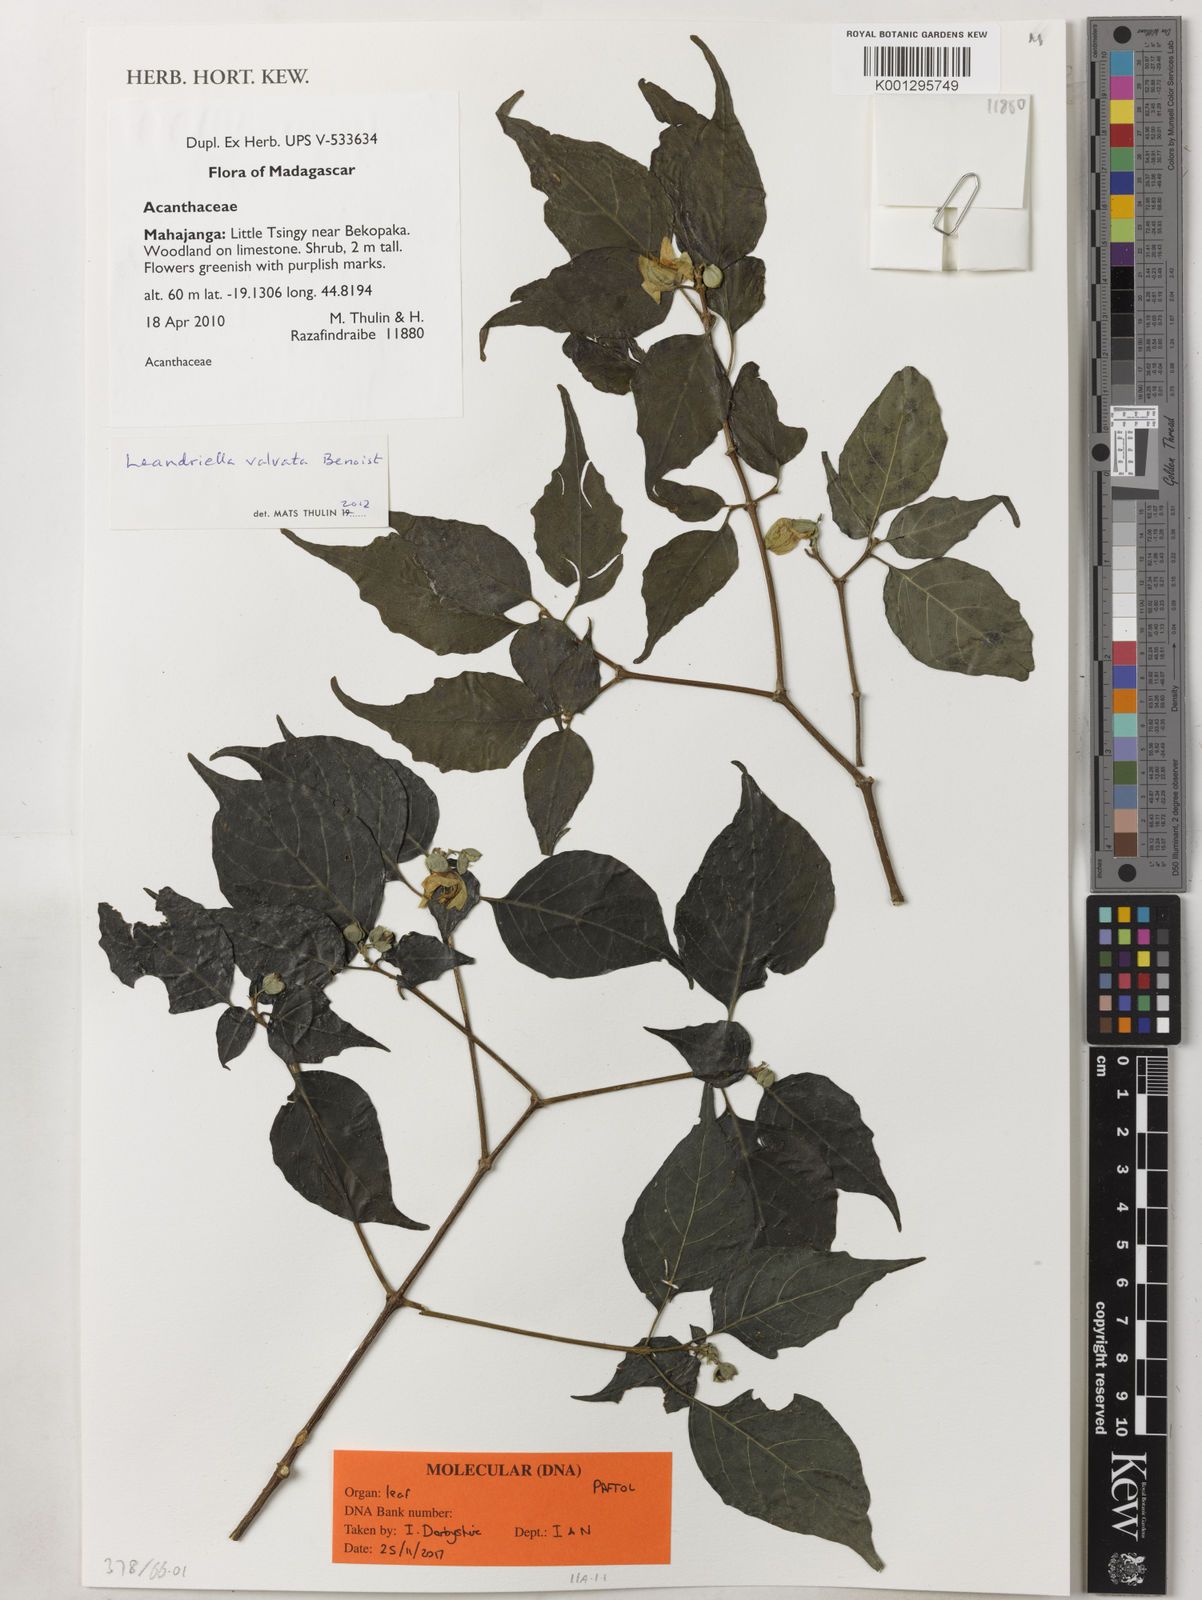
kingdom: Plantae
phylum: Tracheophyta
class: Magnoliopsida
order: Lamiales
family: Acanthaceae
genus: Leandriella
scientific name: Leandriella valvata
